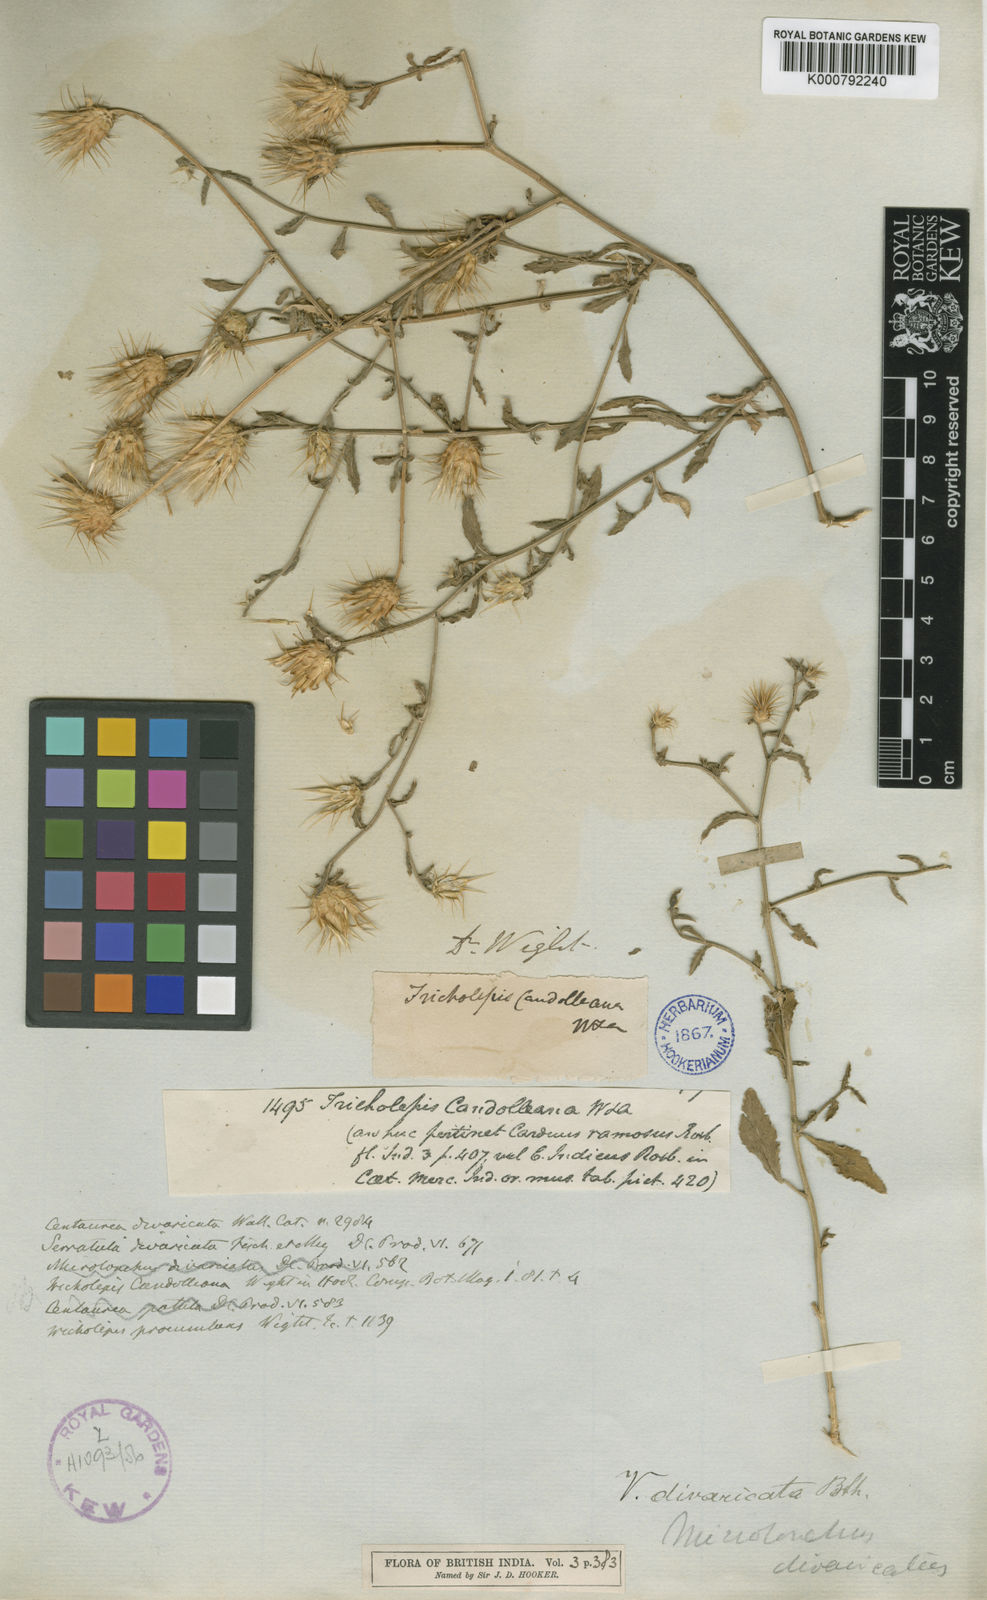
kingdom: Plantae
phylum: Tracheophyta
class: Magnoliopsida
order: Asterales
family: Asteraceae
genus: Oligochaeta
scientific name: Oligochaeta divaricata
